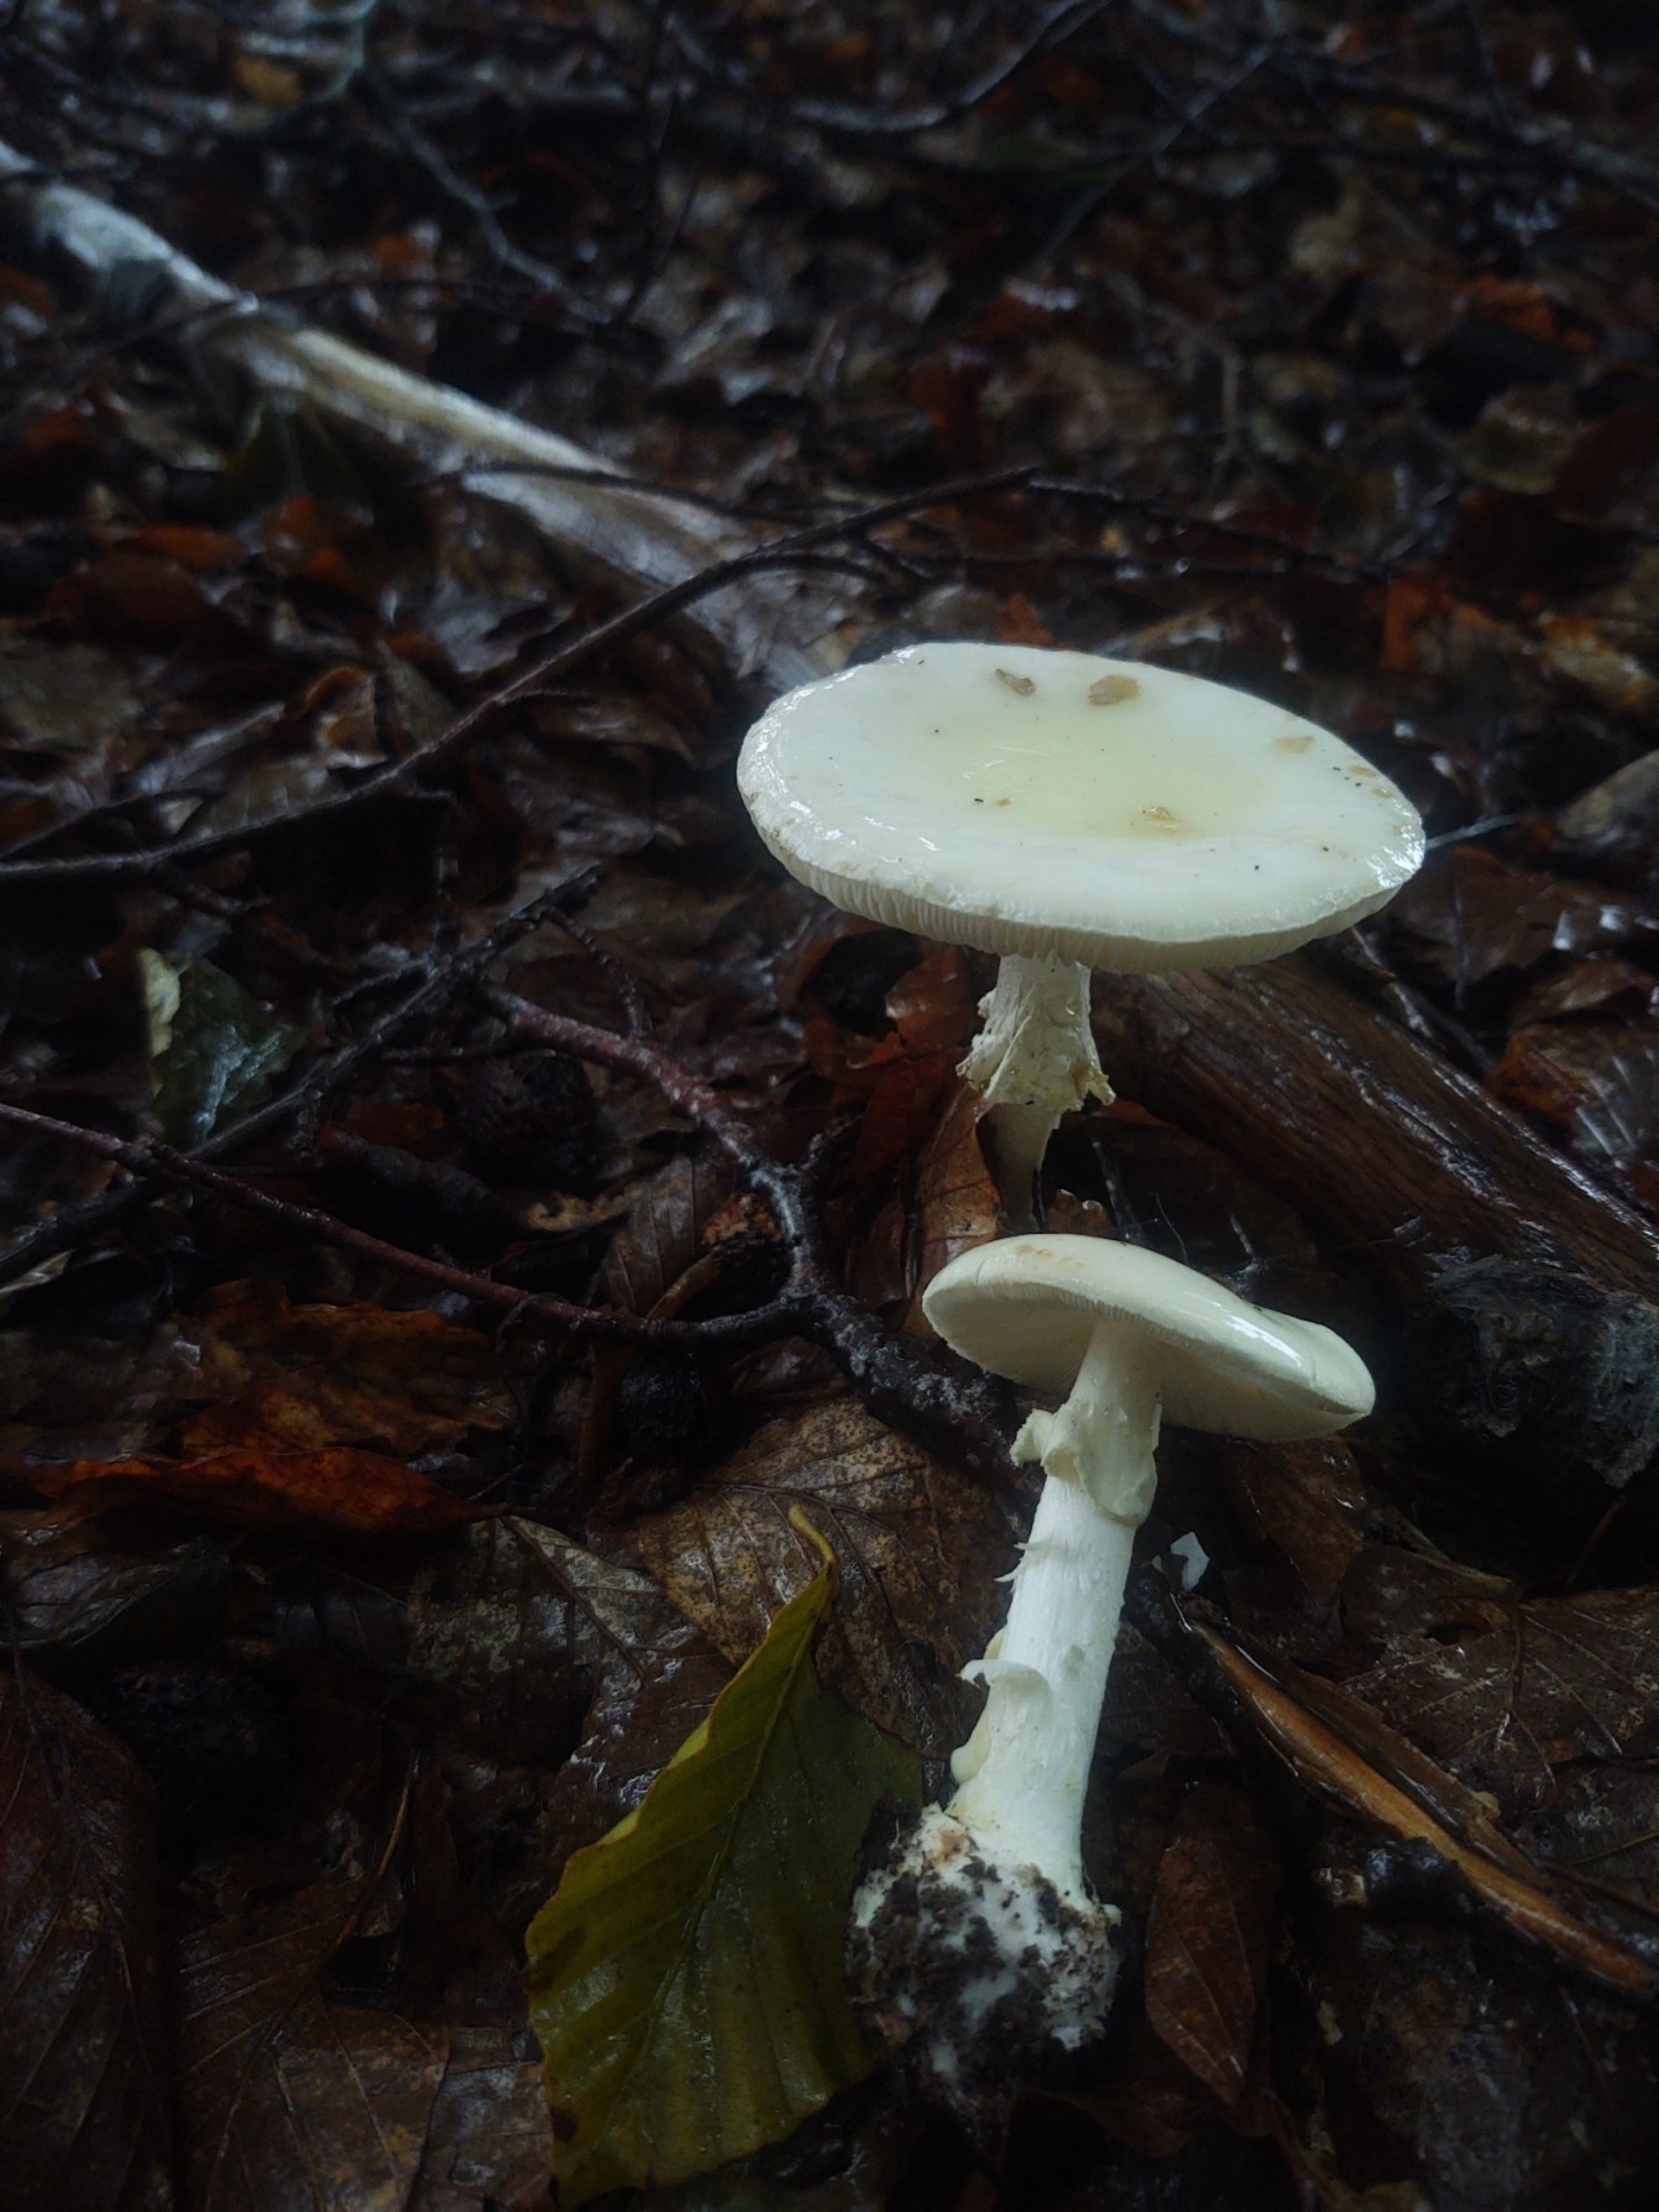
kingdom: Fungi
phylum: Basidiomycota
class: Agaricomycetes
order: Agaricales
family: Amanitaceae
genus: Amanita
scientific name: Amanita citrina
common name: Kugleknoldet fluesvamp
